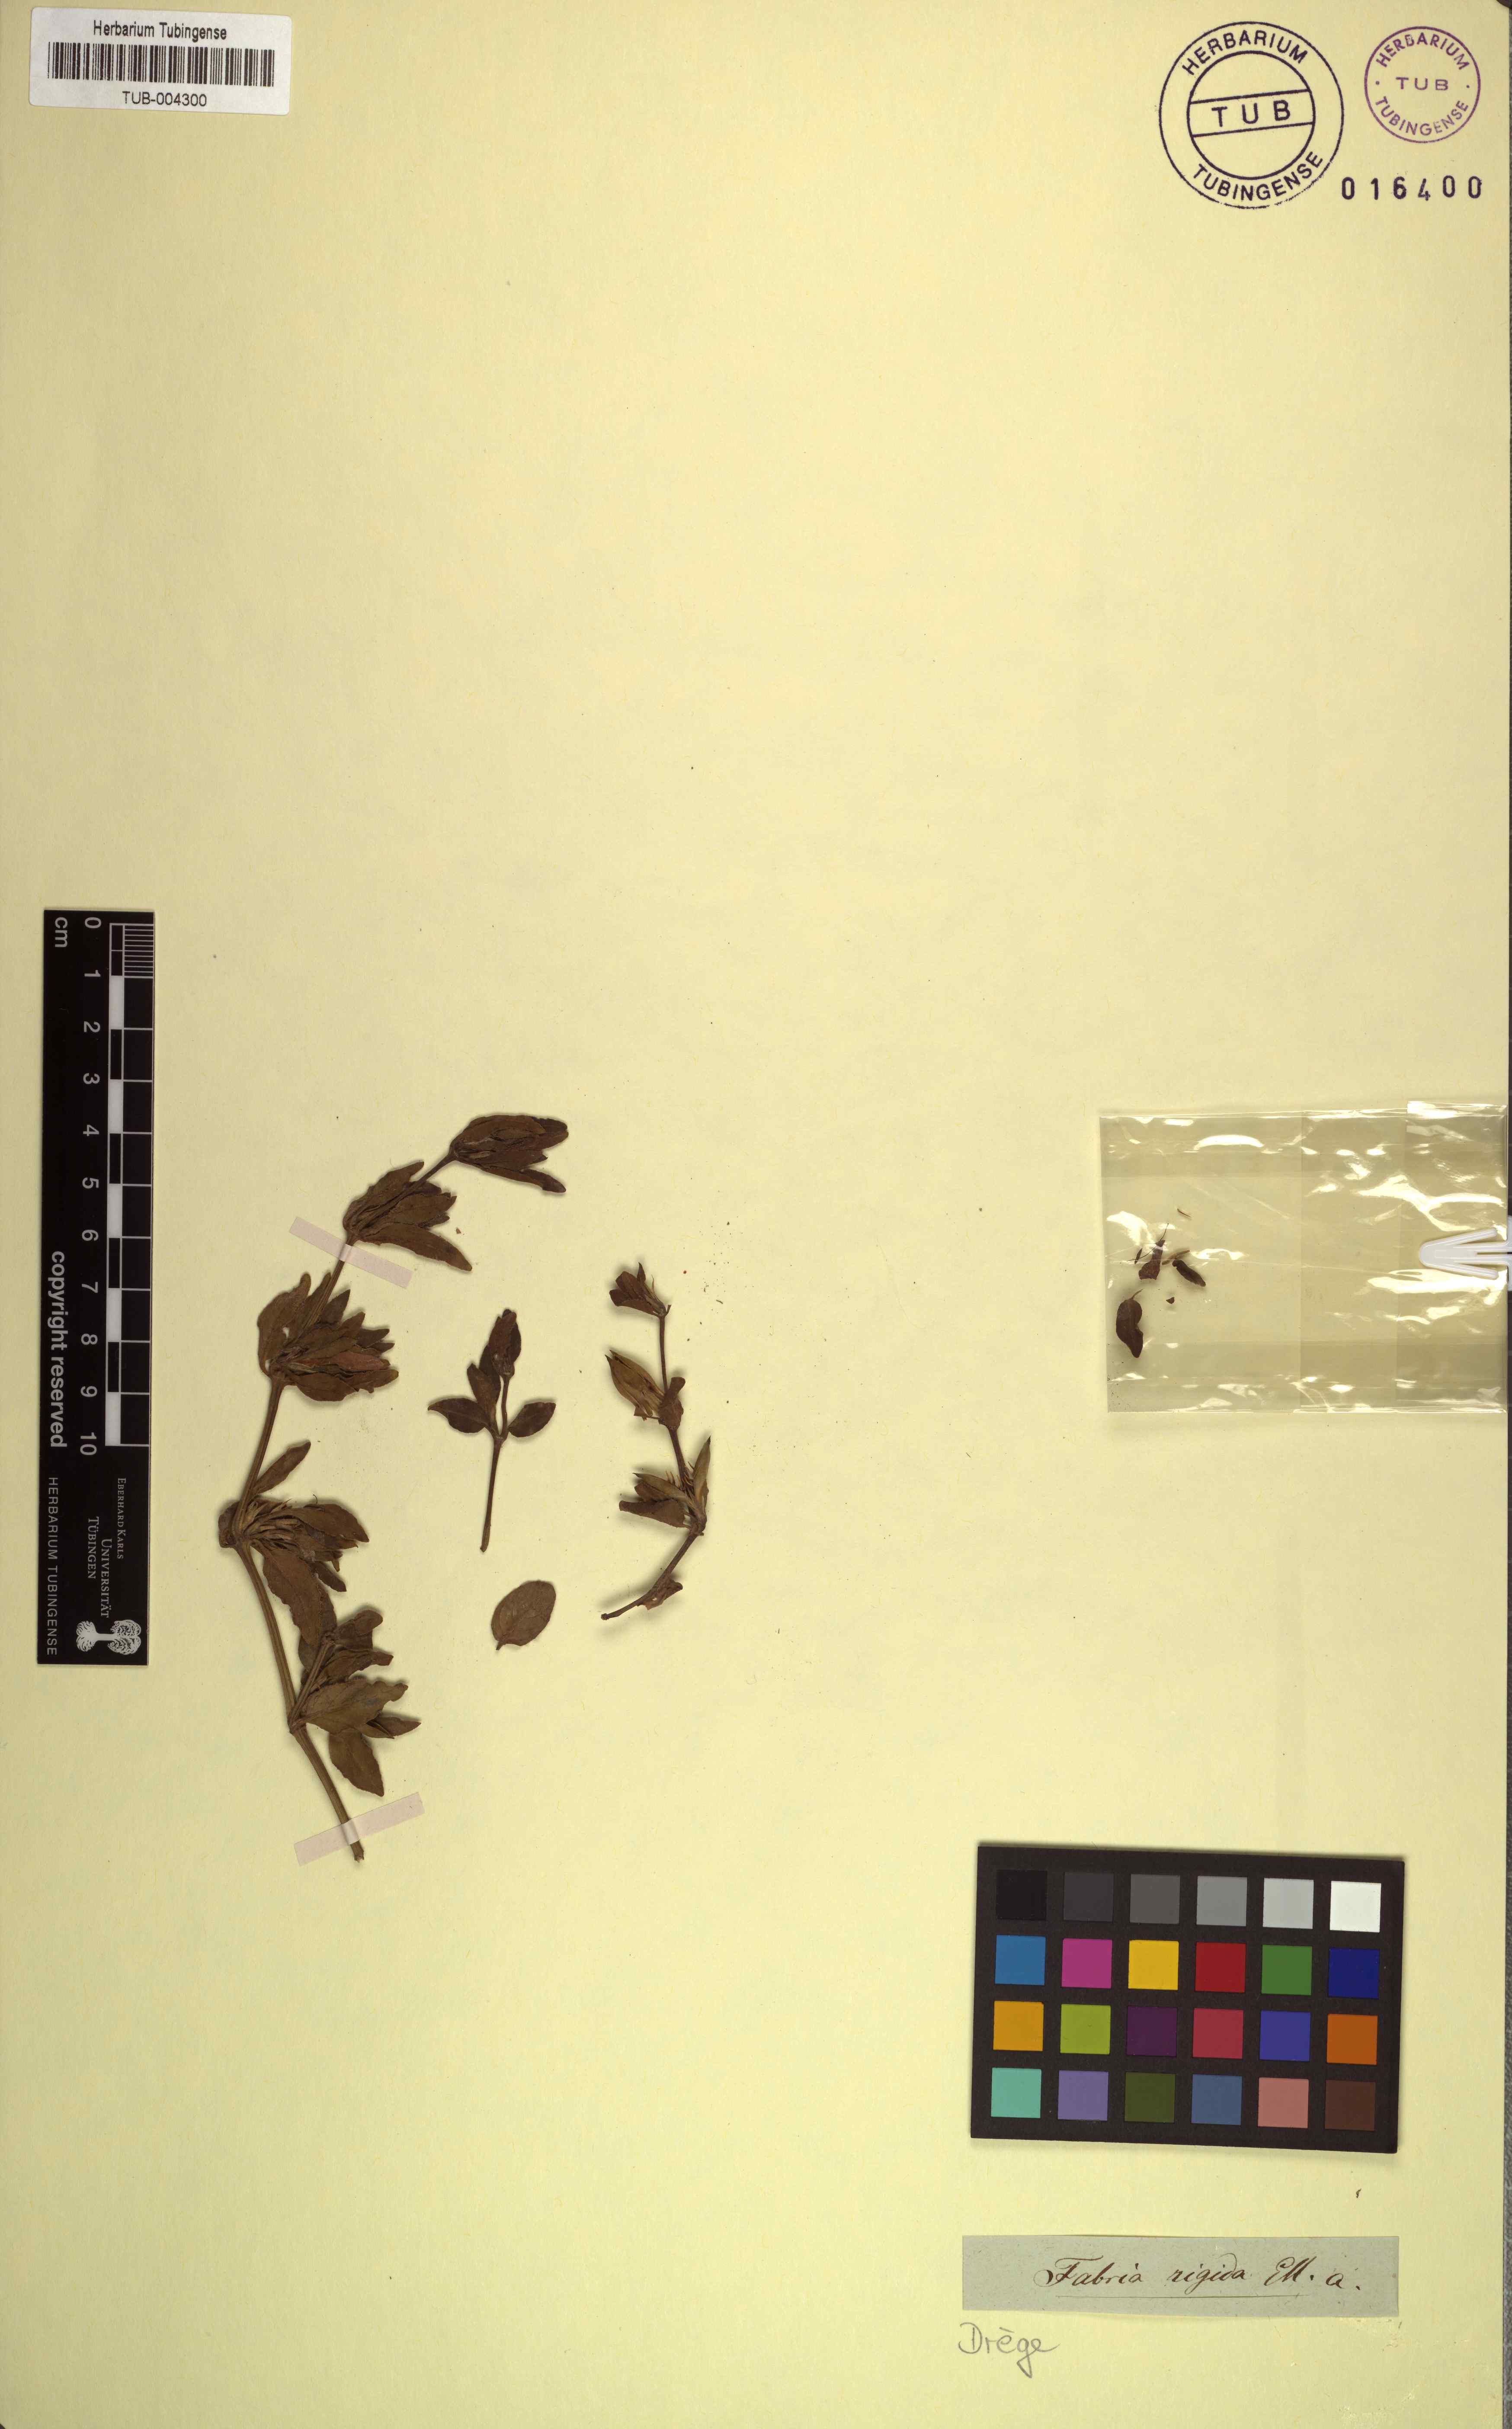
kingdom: Plantae
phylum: Tracheophyta
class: Magnoliopsida
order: Lamiales
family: Acanthaceae
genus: Ruellia
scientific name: Ruellia pilosa
